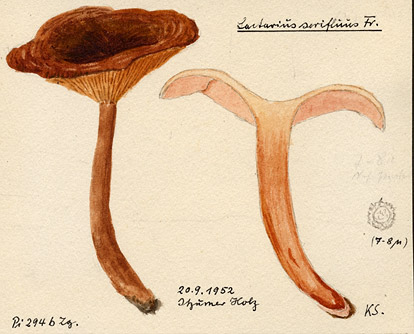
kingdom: Fungi
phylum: Basidiomycota
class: Agaricomycetes
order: Russulales
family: Russulaceae
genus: Lactarius
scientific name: Lactarius serifluus
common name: Watery milk-cap
